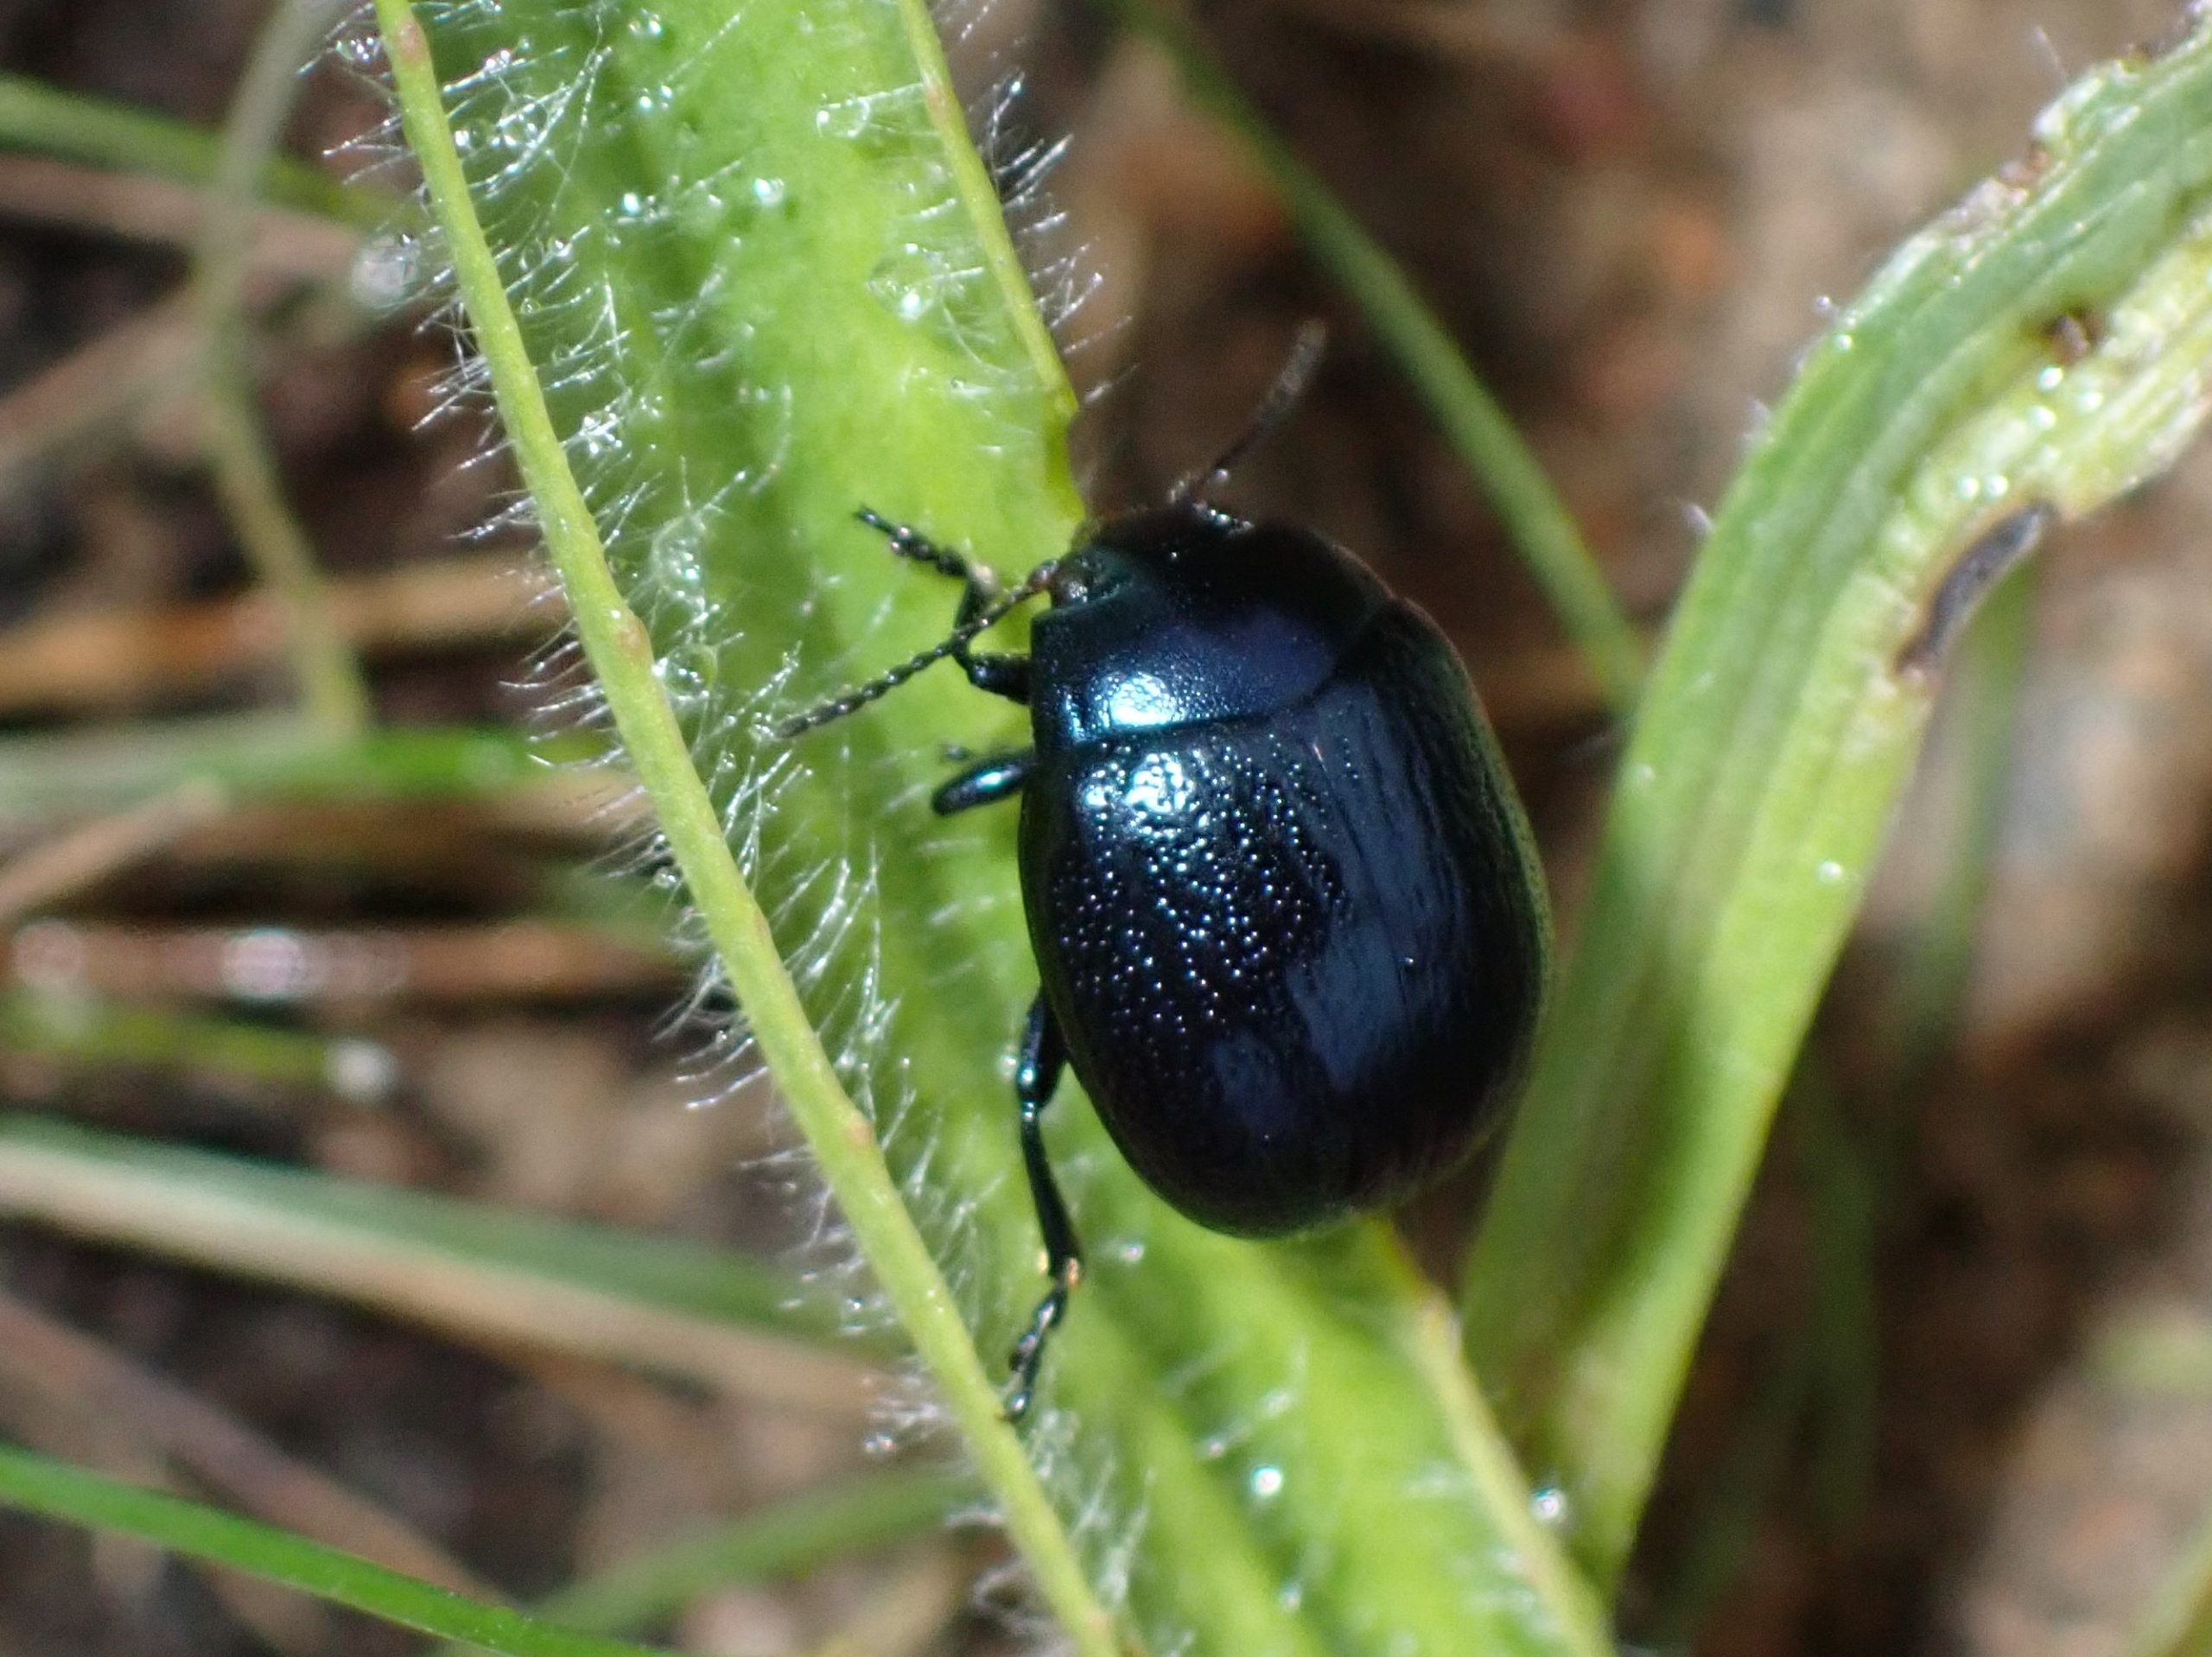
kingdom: Animalia
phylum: Arthropoda
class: Insecta
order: Coleoptera
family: Chrysomelidae
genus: Chrysolina
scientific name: Chrysolina haemoptera
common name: Sortblå guldbille
